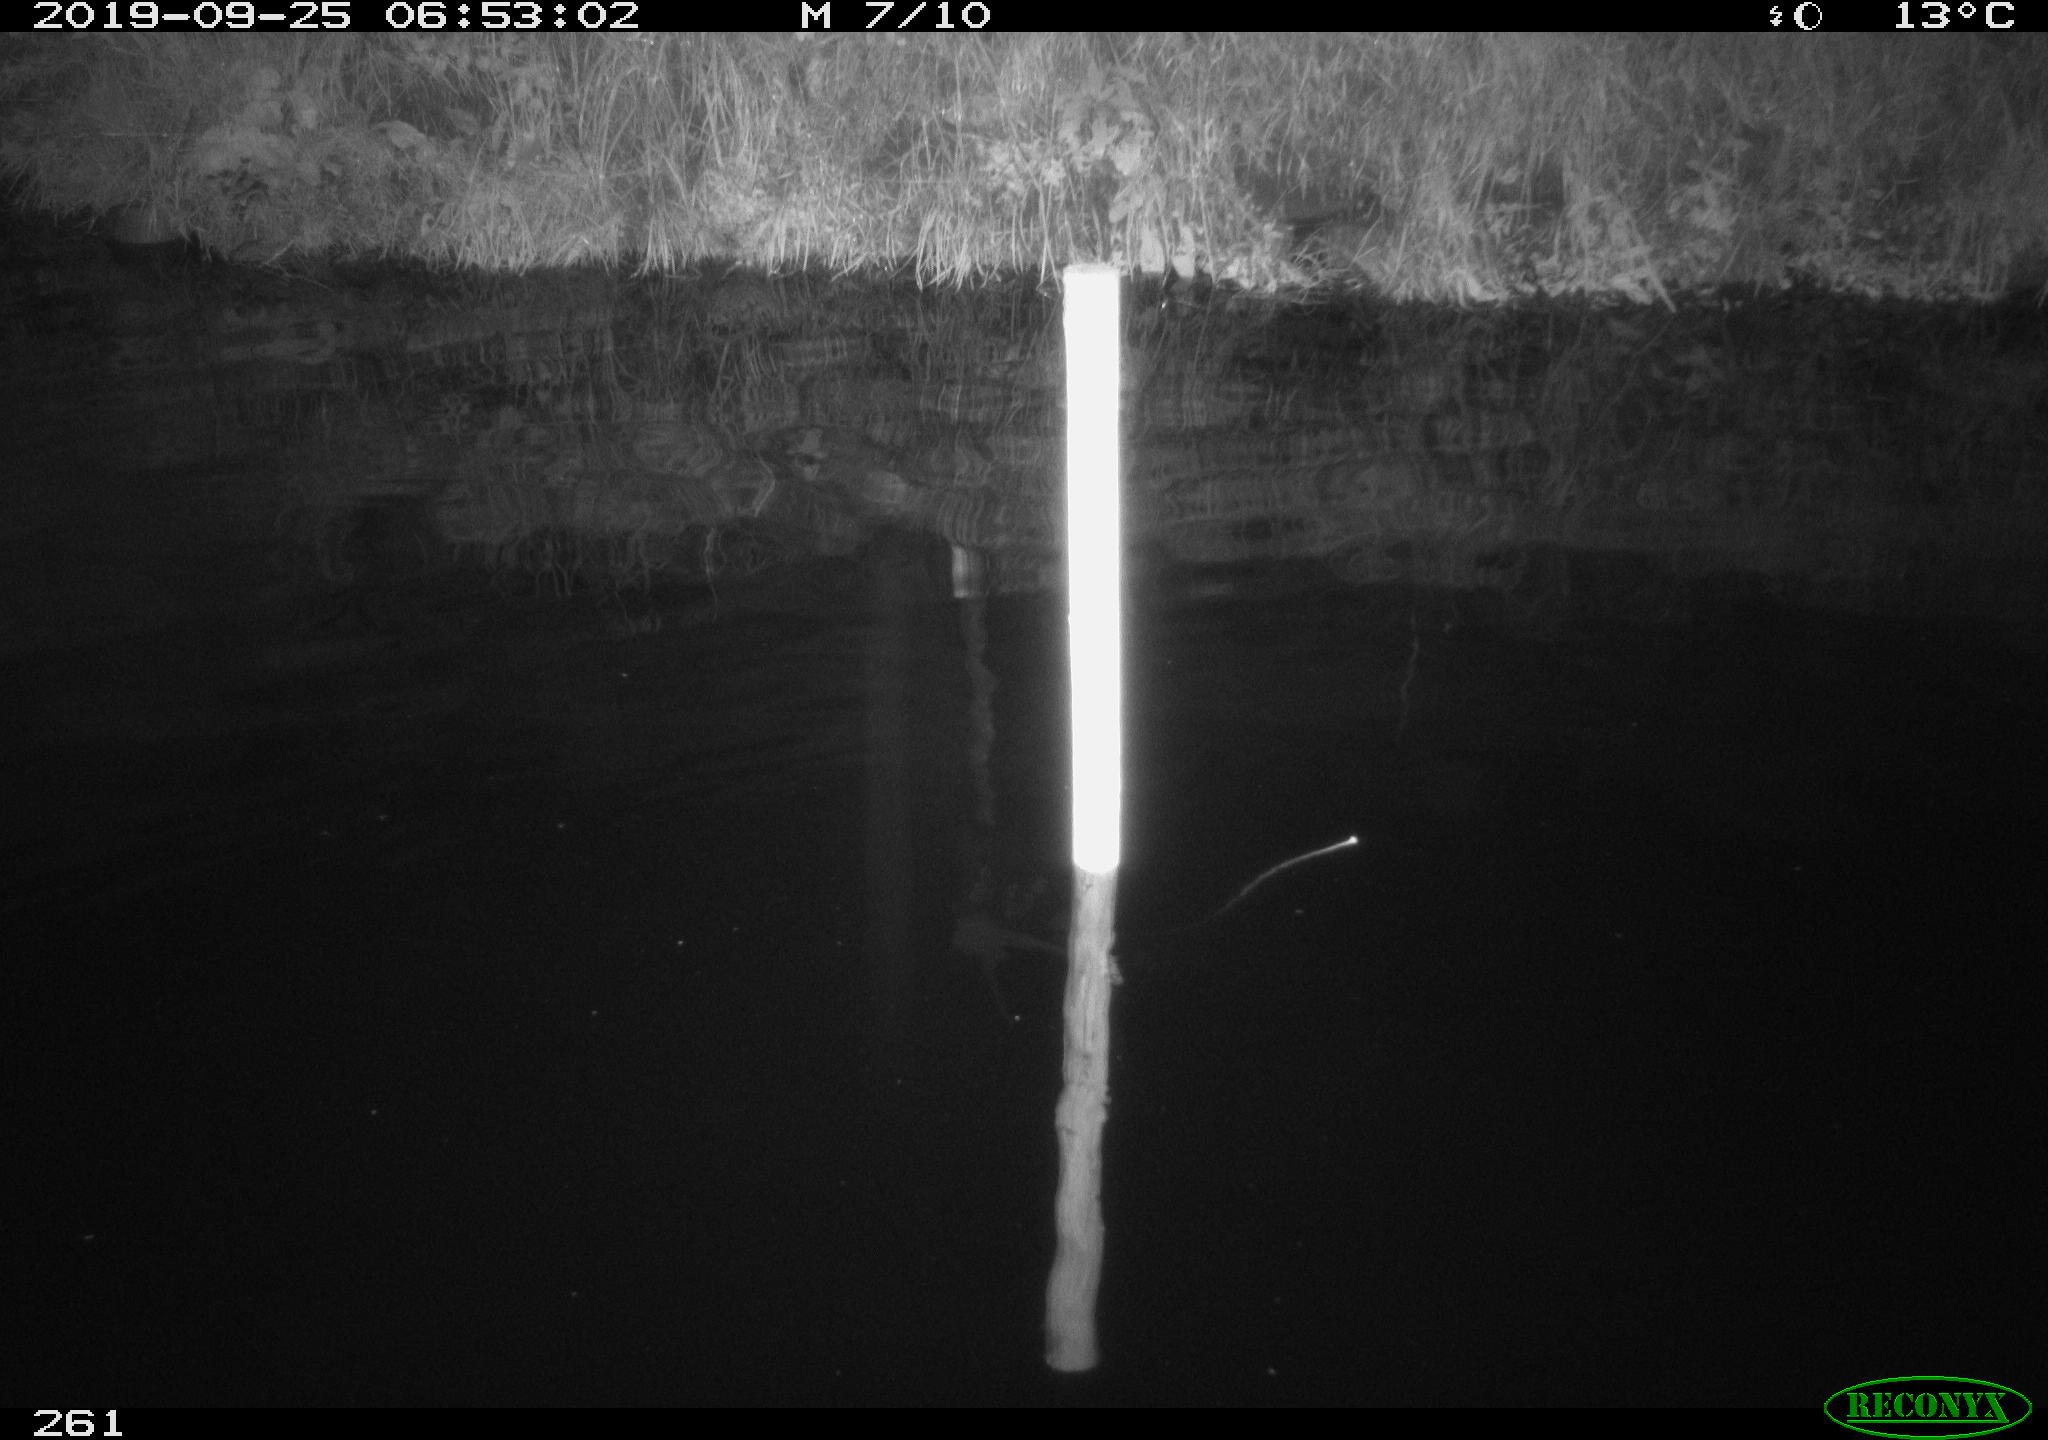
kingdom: Animalia
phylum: Chordata
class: Aves
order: Anseriformes
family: Anatidae
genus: Anas
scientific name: Anas platyrhynchos
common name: Mallard
